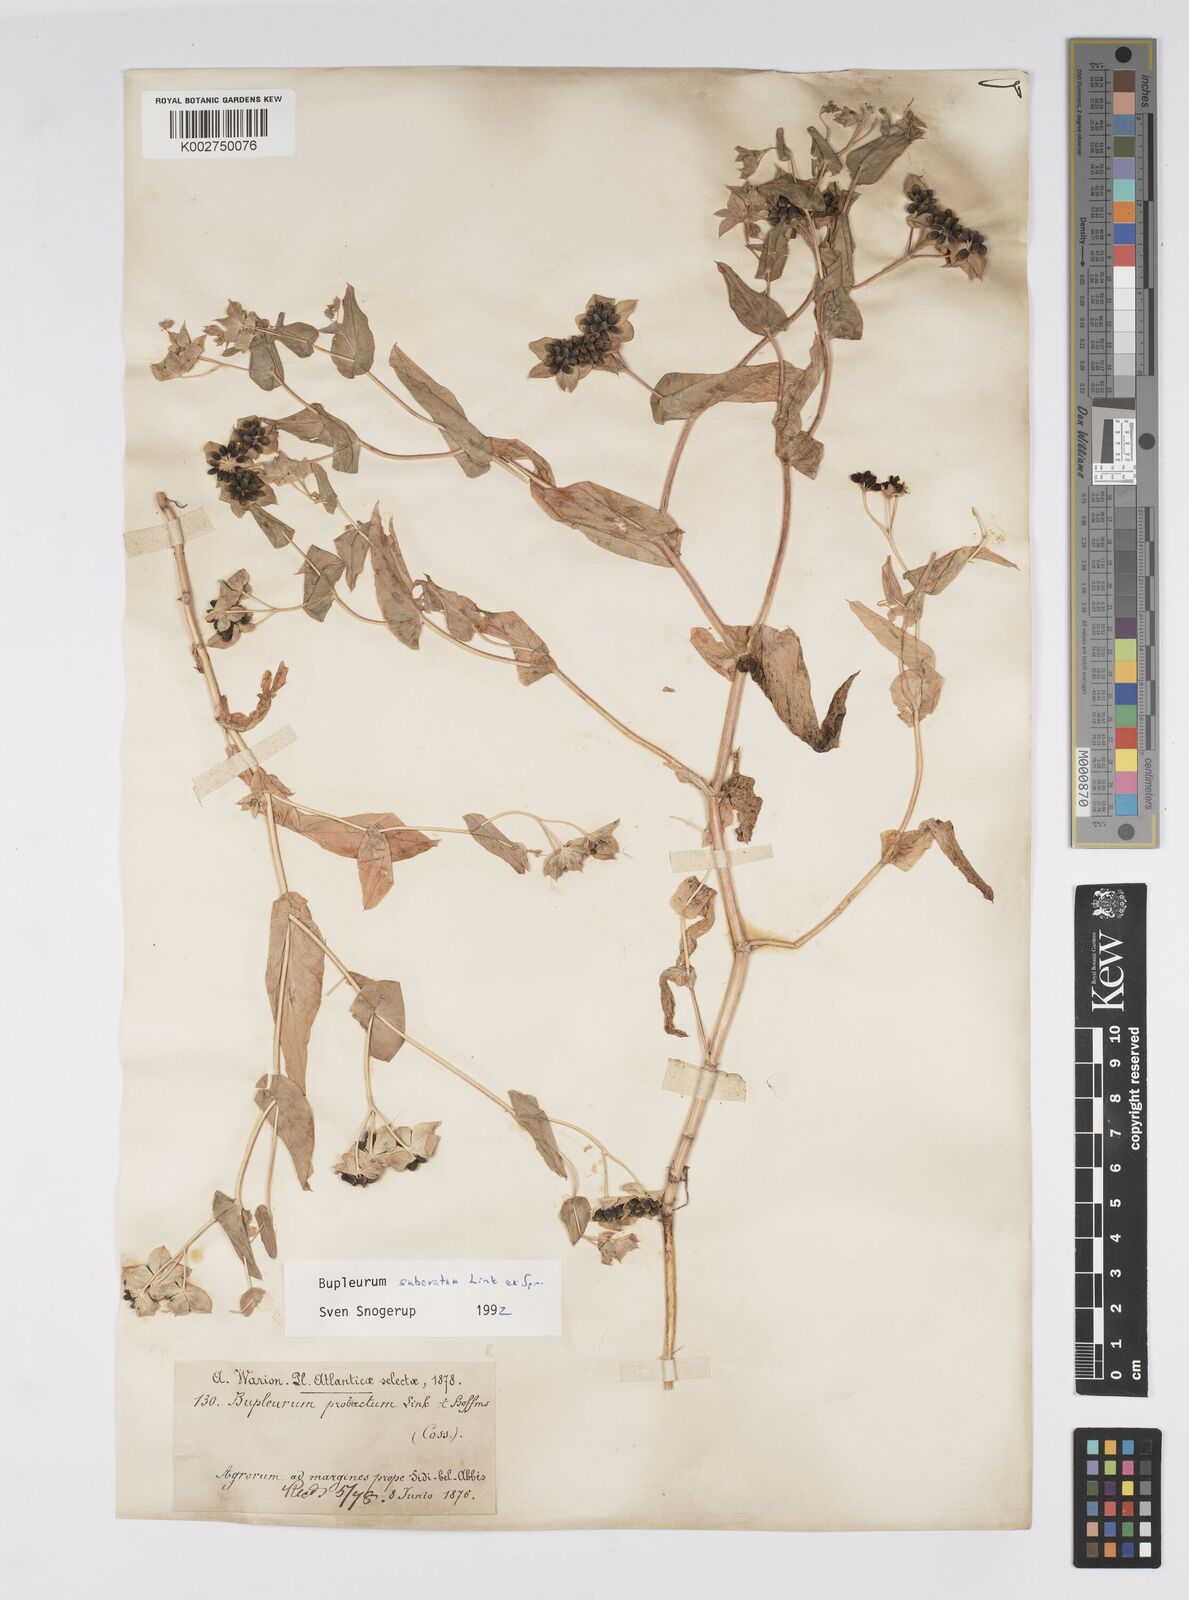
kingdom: Plantae
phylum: Tracheophyta
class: Magnoliopsida
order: Apiales
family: Apiaceae
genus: Bupleurum
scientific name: Bupleurum subovatum
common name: False thorow-wax
